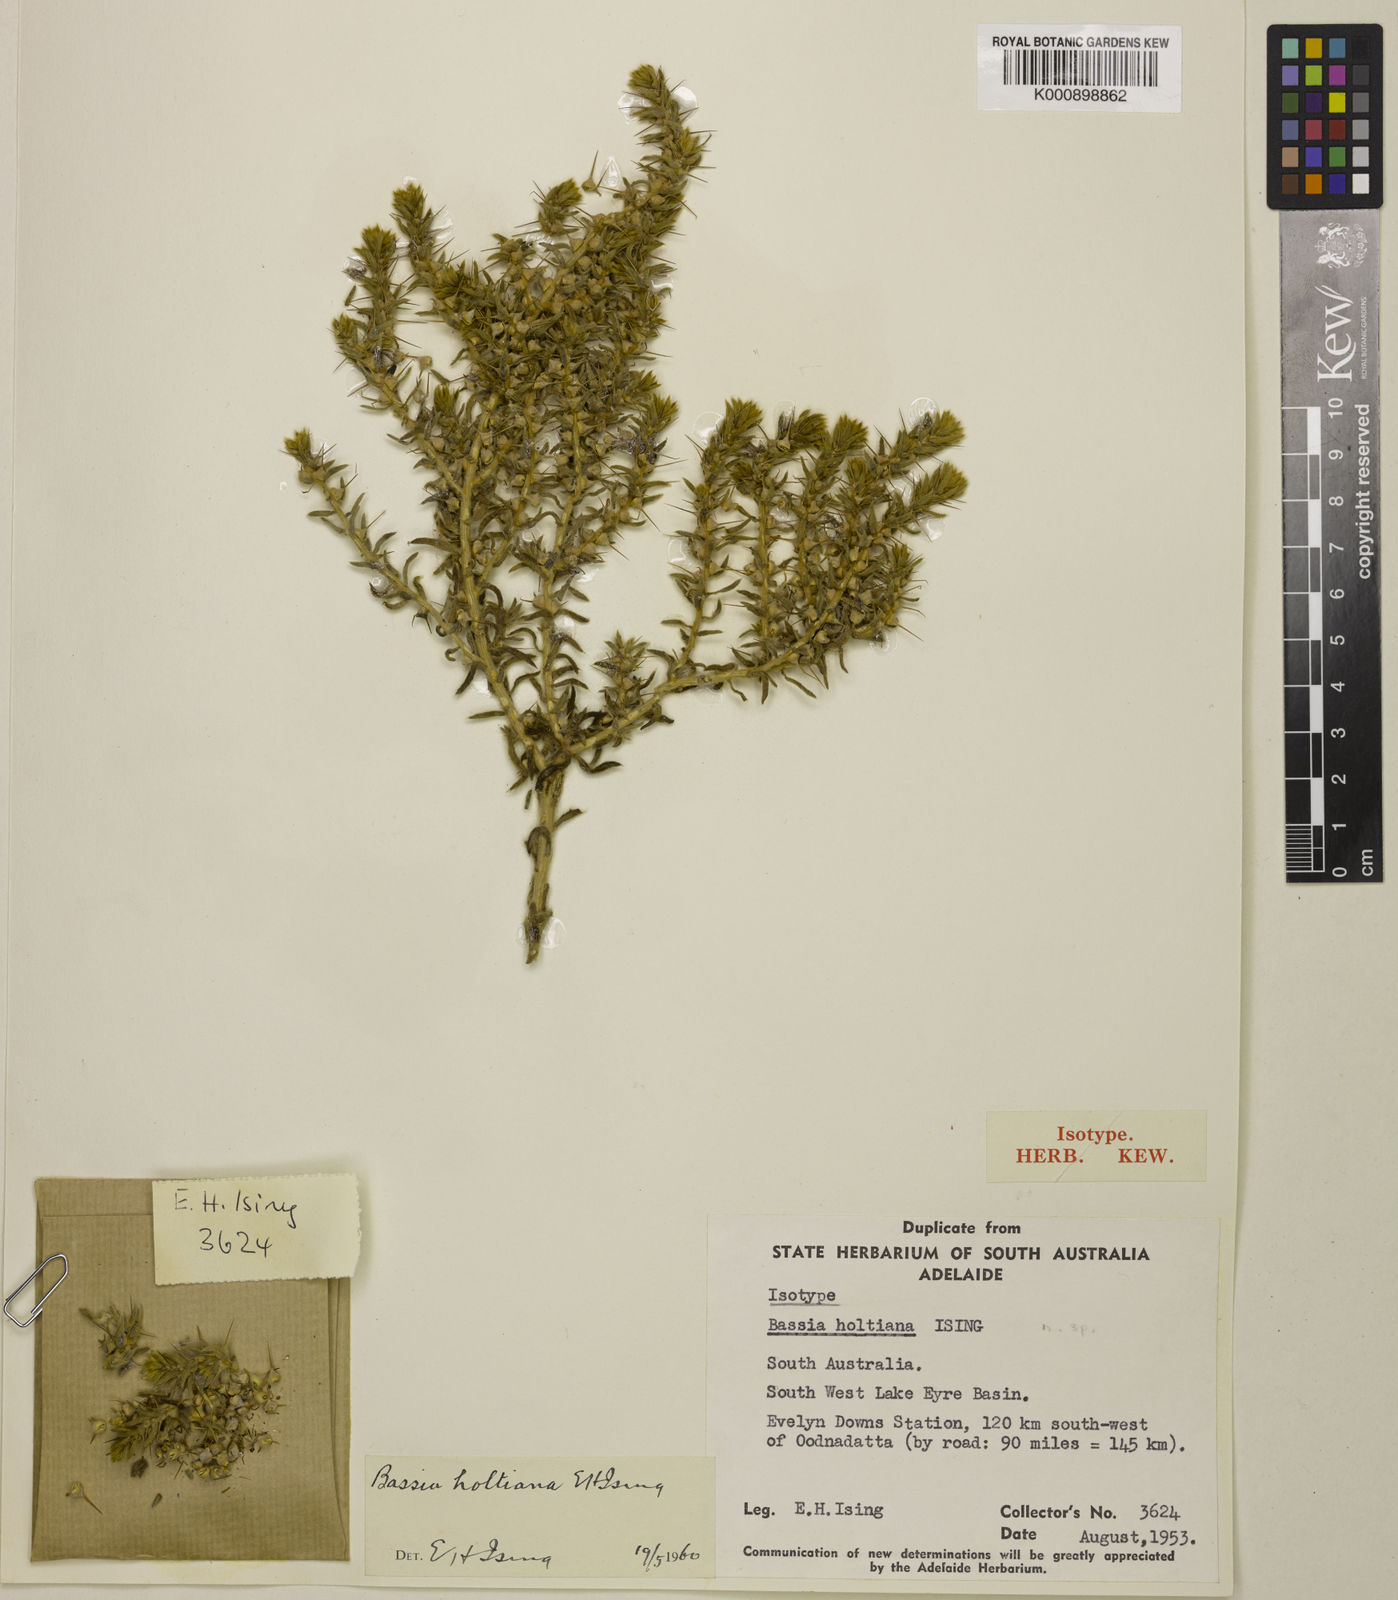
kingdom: Plantae
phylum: Tracheophyta
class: Magnoliopsida
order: Caryophyllales
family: Amaranthaceae
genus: Sclerolaena
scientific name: Sclerolaena holtiana
